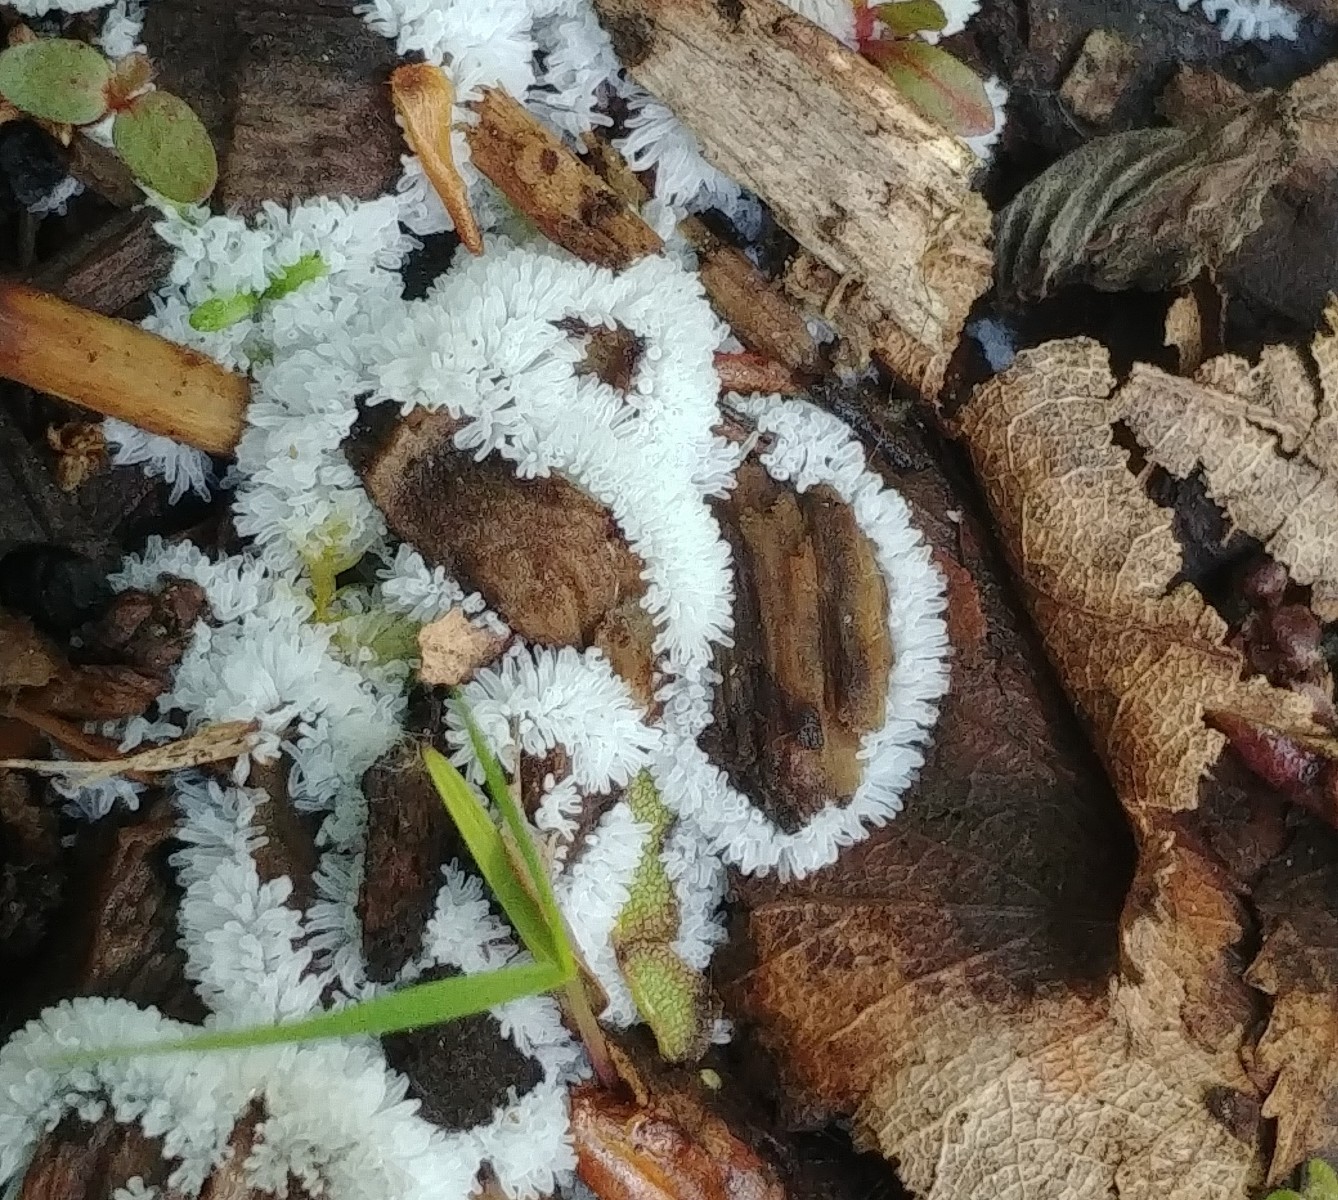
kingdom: Protozoa
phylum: Mycetozoa
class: Protosteliomycetes
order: Ceratiomyxales
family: Ceratiomyxaceae
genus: Ceratiomyxa
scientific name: Ceratiomyxa fruticulosa
